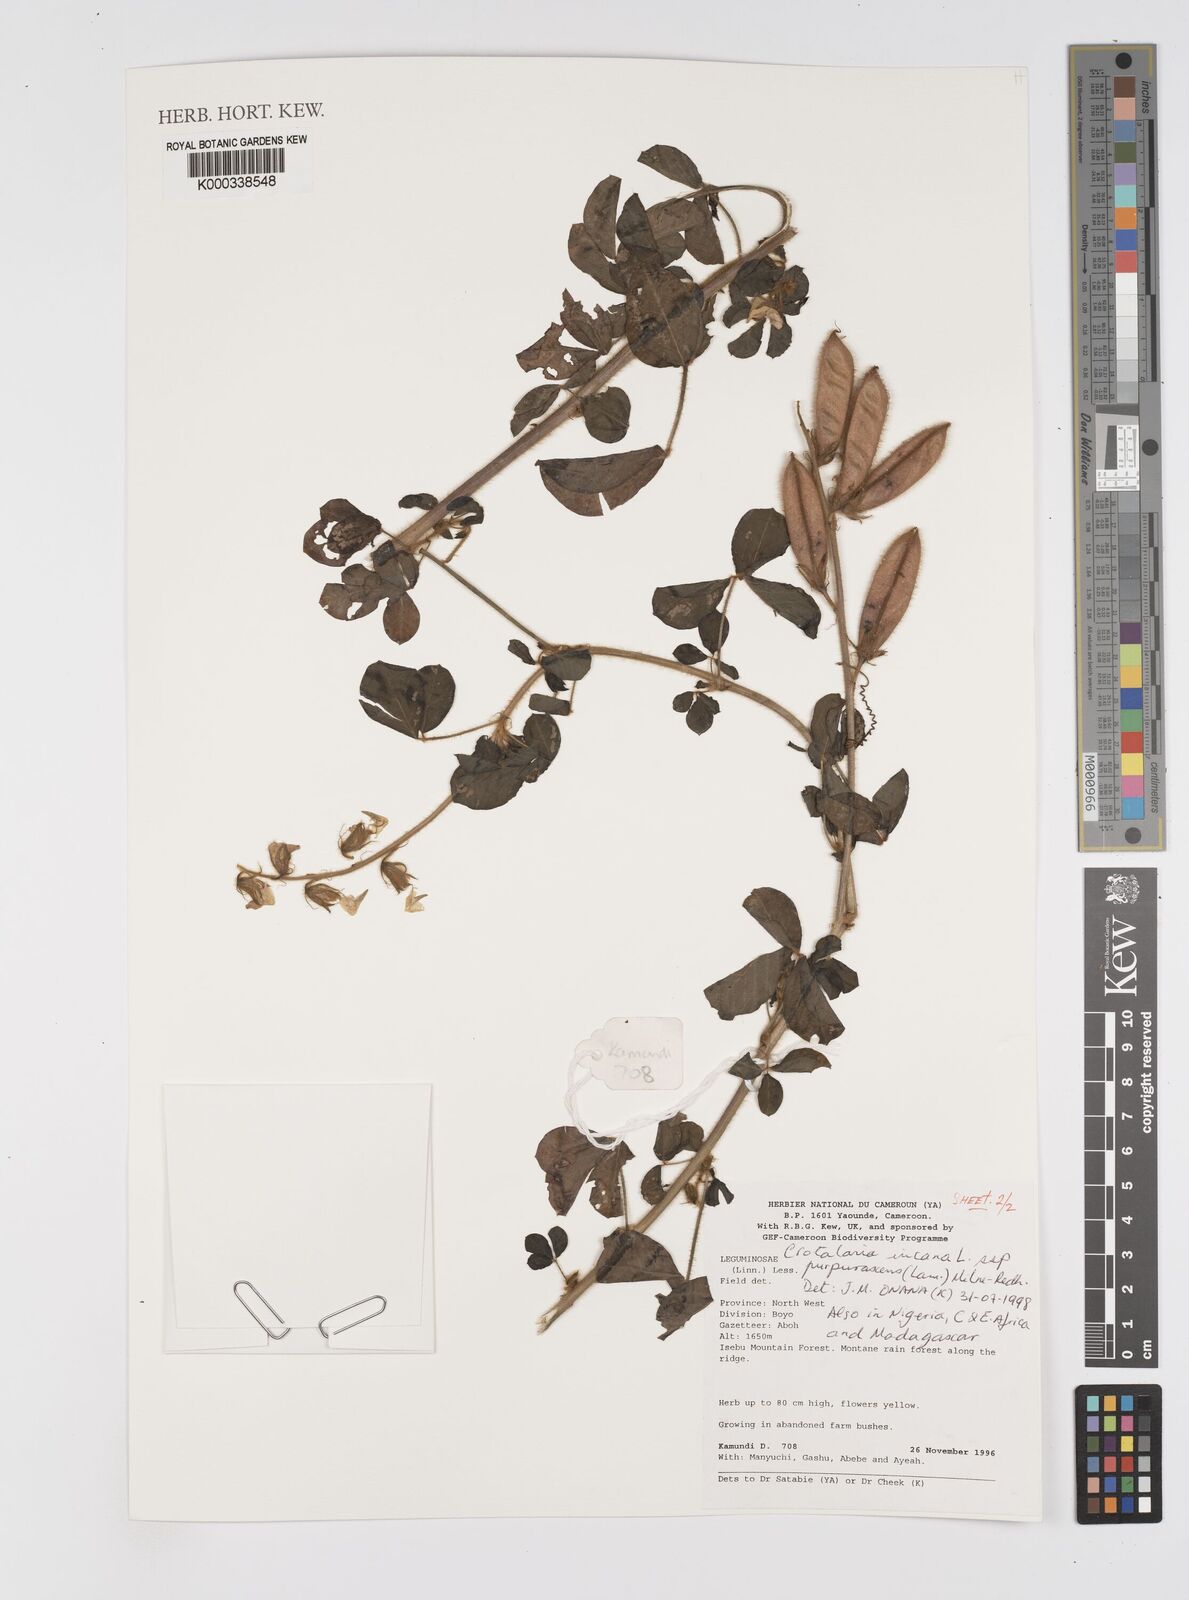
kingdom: Plantae
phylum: Tracheophyta
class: Magnoliopsida
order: Fabales
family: Fabaceae
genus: Crotalaria
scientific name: Crotalaria incana
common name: Shakeshake
